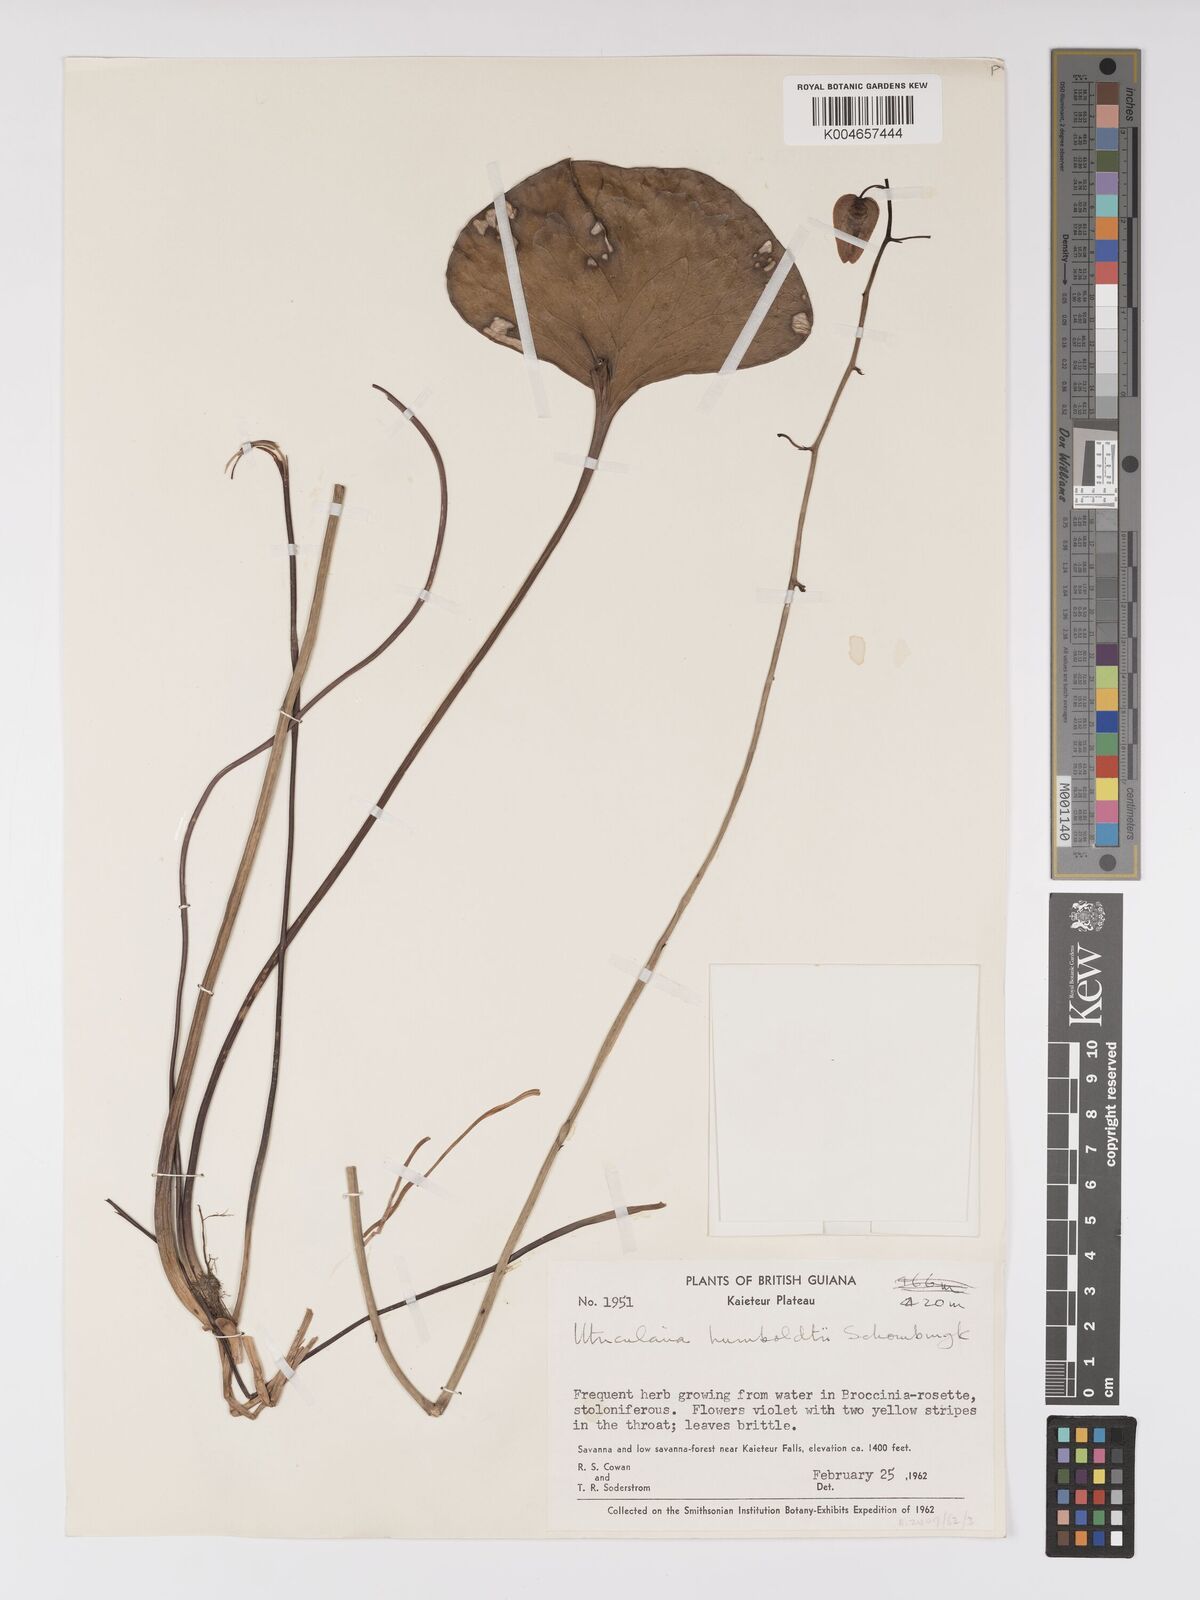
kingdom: Plantae
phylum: Tracheophyta
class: Magnoliopsida
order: Lamiales
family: Lentibulariaceae
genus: Utricularia
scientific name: Utricularia humboldtii
